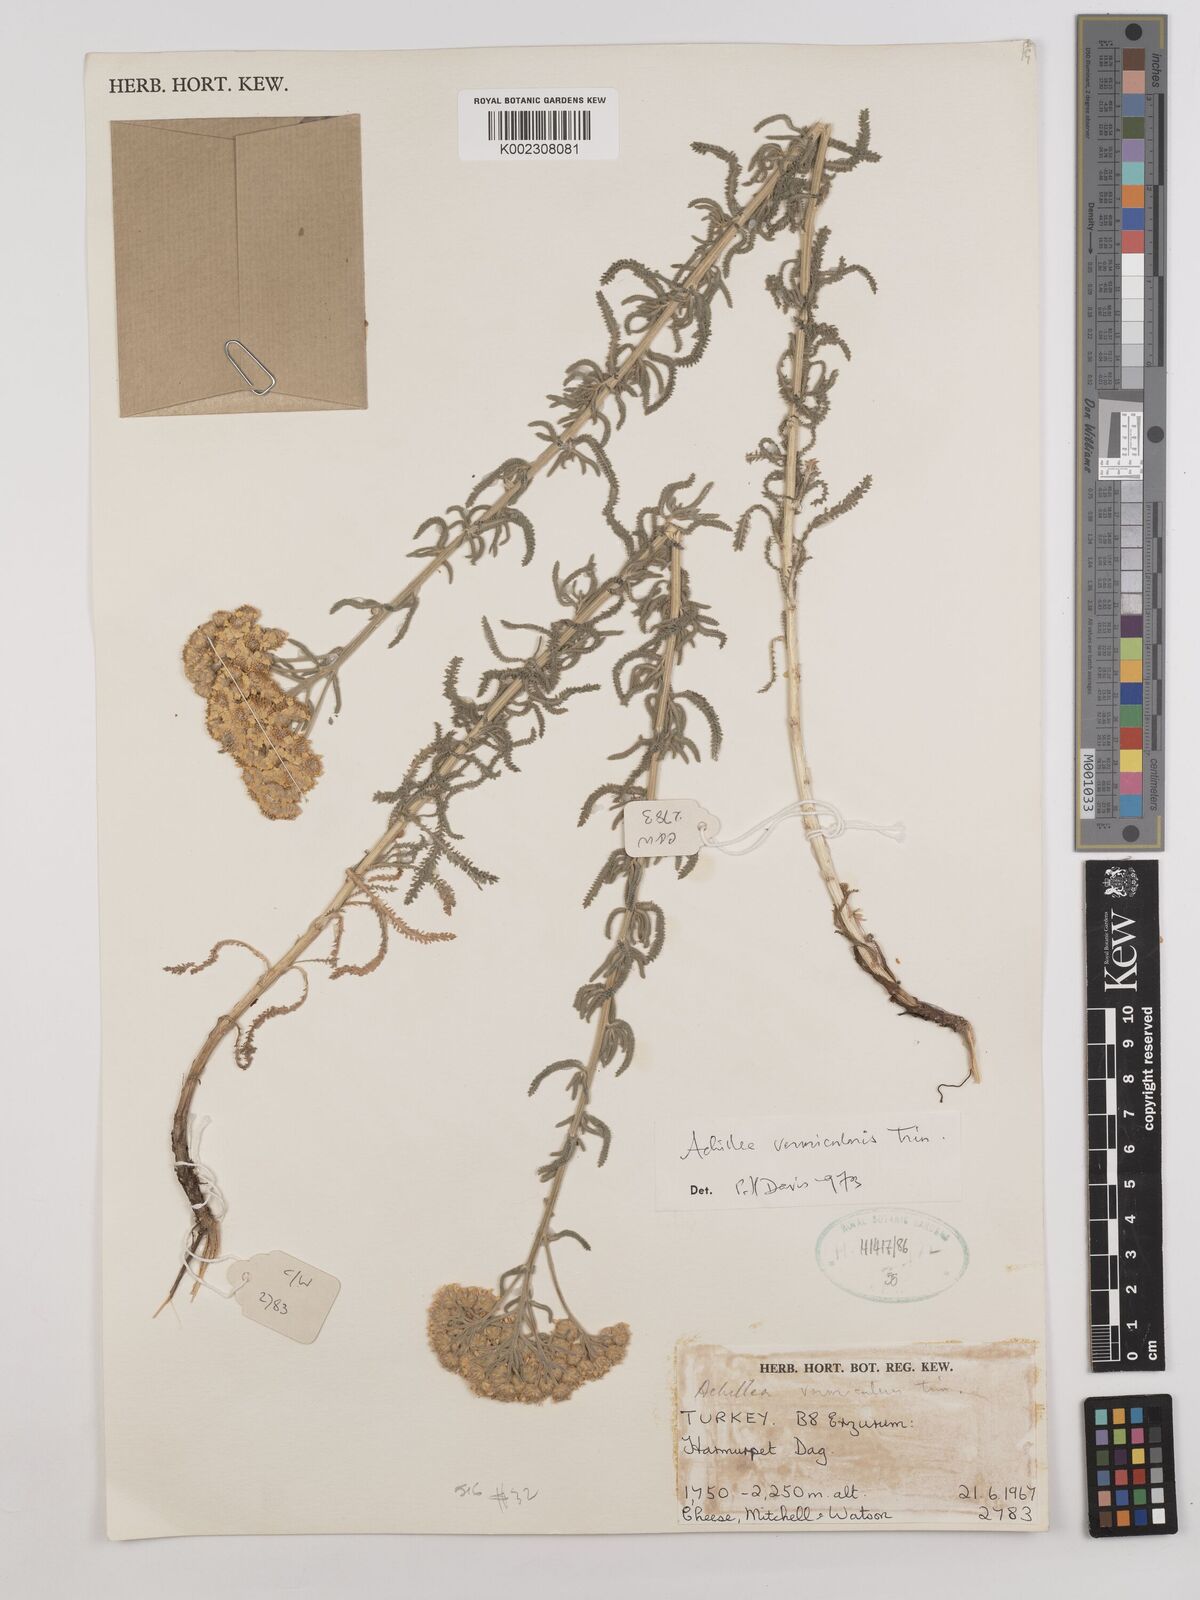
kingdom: Plantae
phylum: Tracheophyta
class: Magnoliopsida
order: Asterales
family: Asteraceae
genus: Achillea
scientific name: Achillea vermicularis
